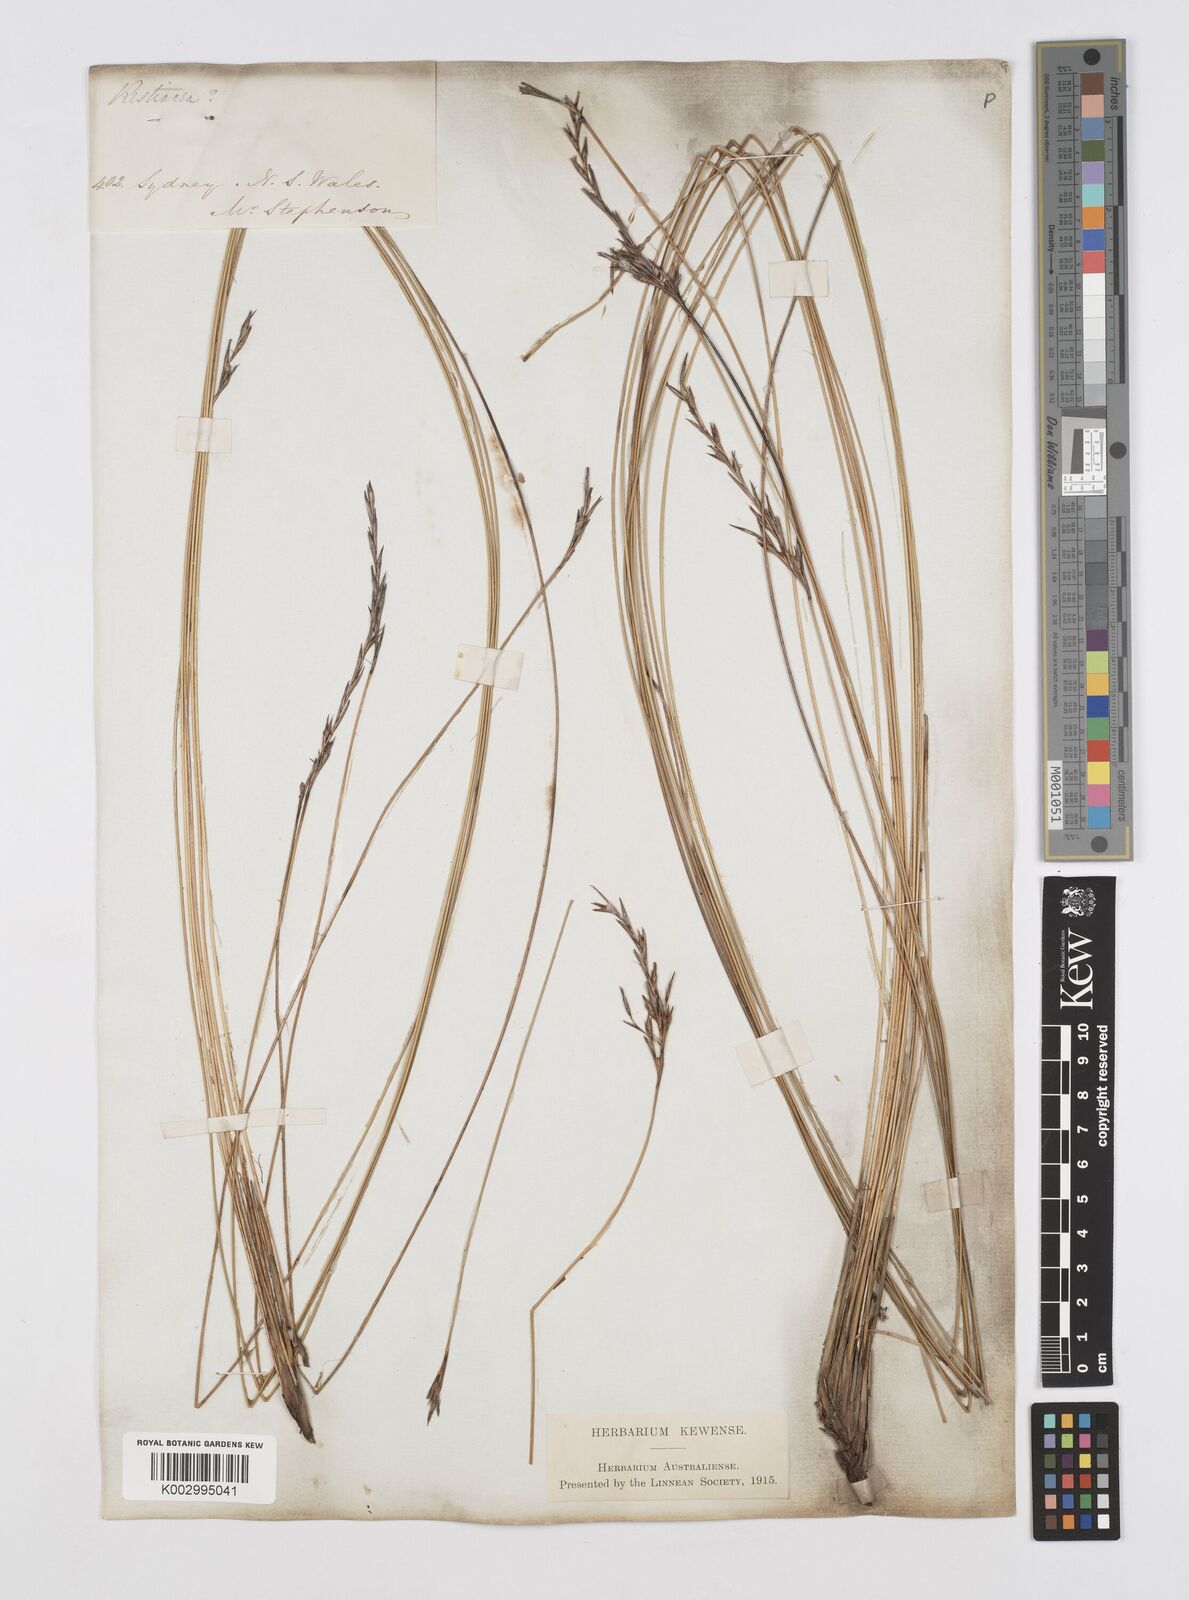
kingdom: Plantae
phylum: Tracheophyta
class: Liliopsida
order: Poales
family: Restionaceae
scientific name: Restionaceae
